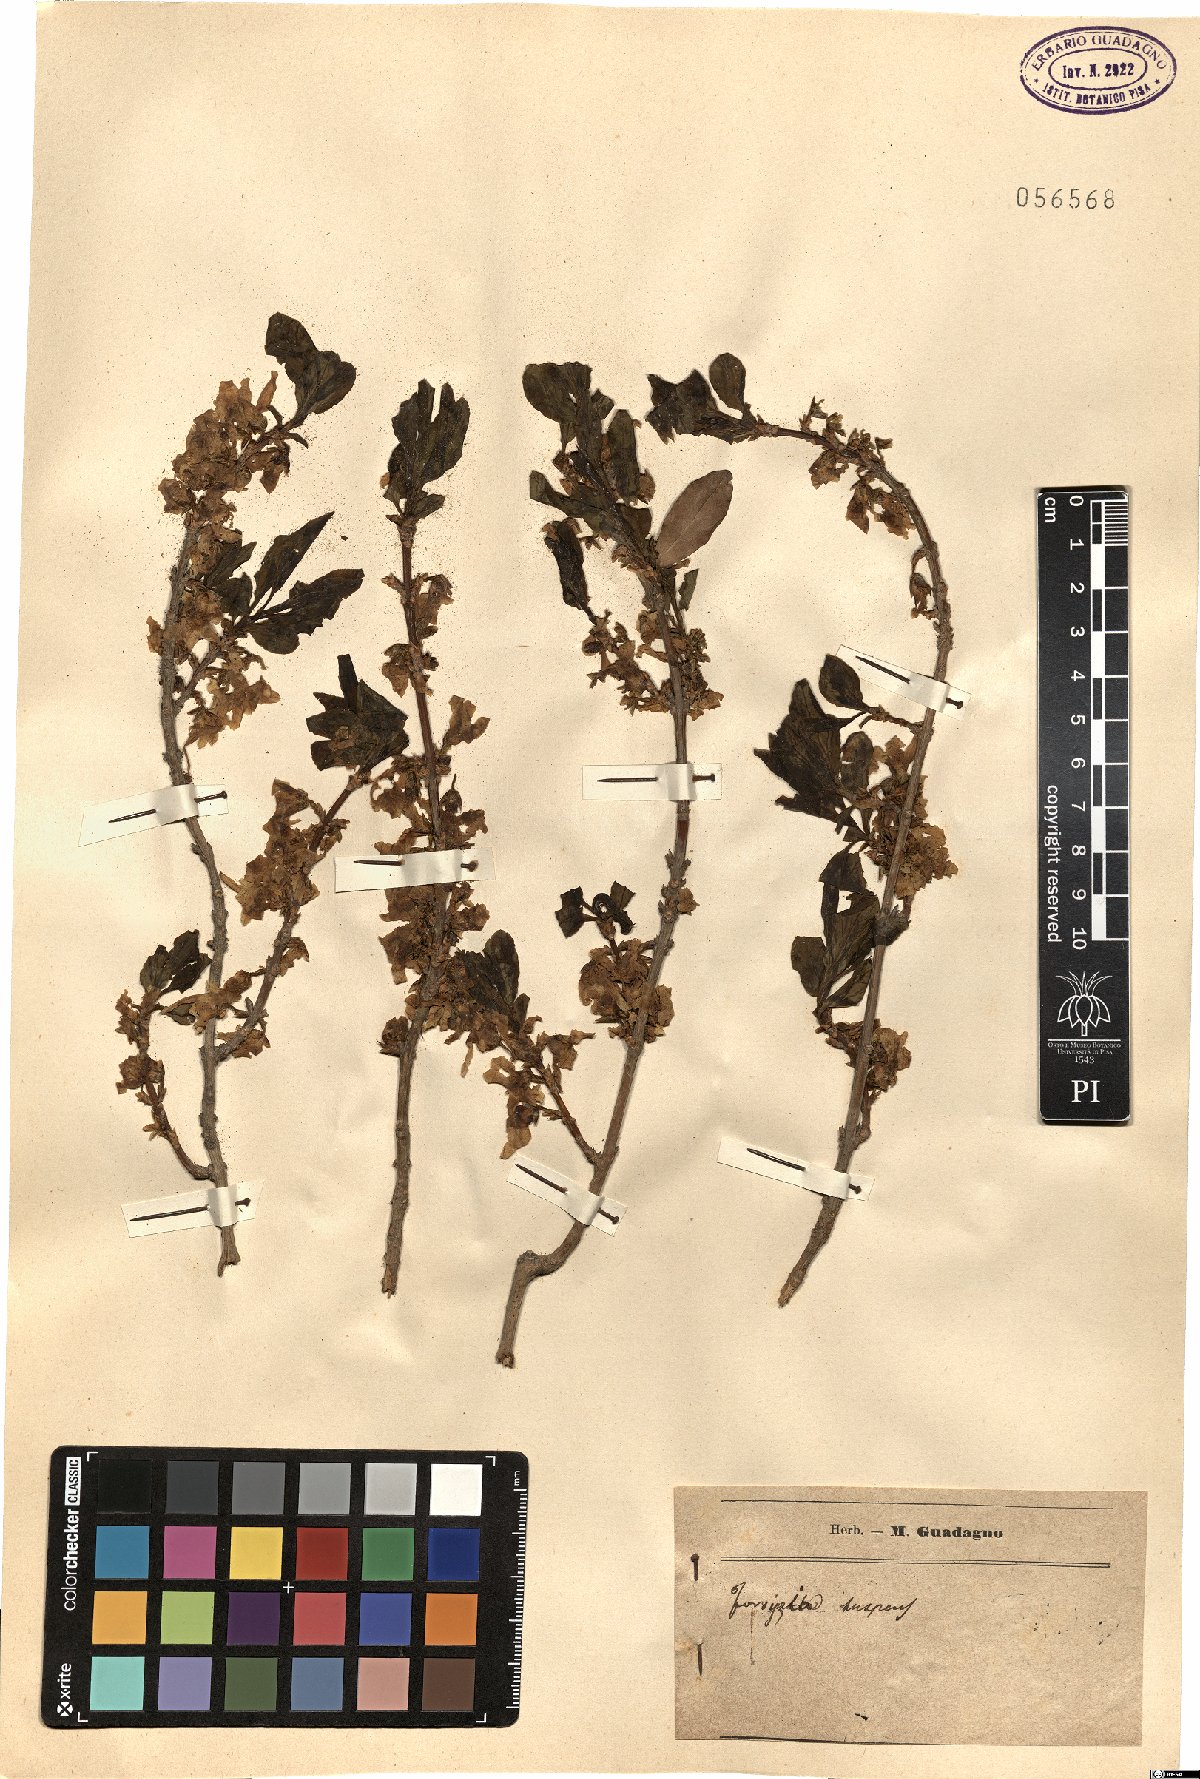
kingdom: Plantae
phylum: Tracheophyta
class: Magnoliopsida
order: Lamiales
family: Oleaceae
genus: Forsythia
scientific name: Forsythia suspensa
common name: Weeping forsythia
